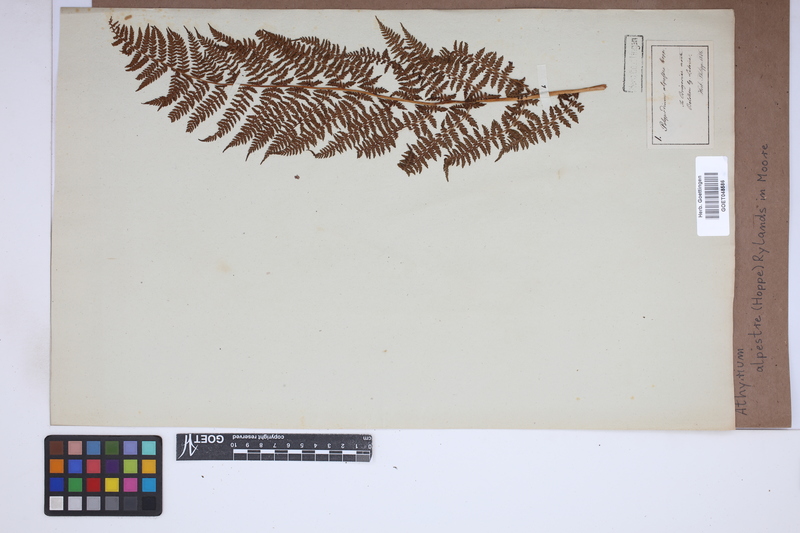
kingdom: Plantae
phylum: Tracheophyta
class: Polypodiopsida
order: Polypodiales
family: Athyriaceae
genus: Pseudathyrium
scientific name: Pseudathyrium alpestre
